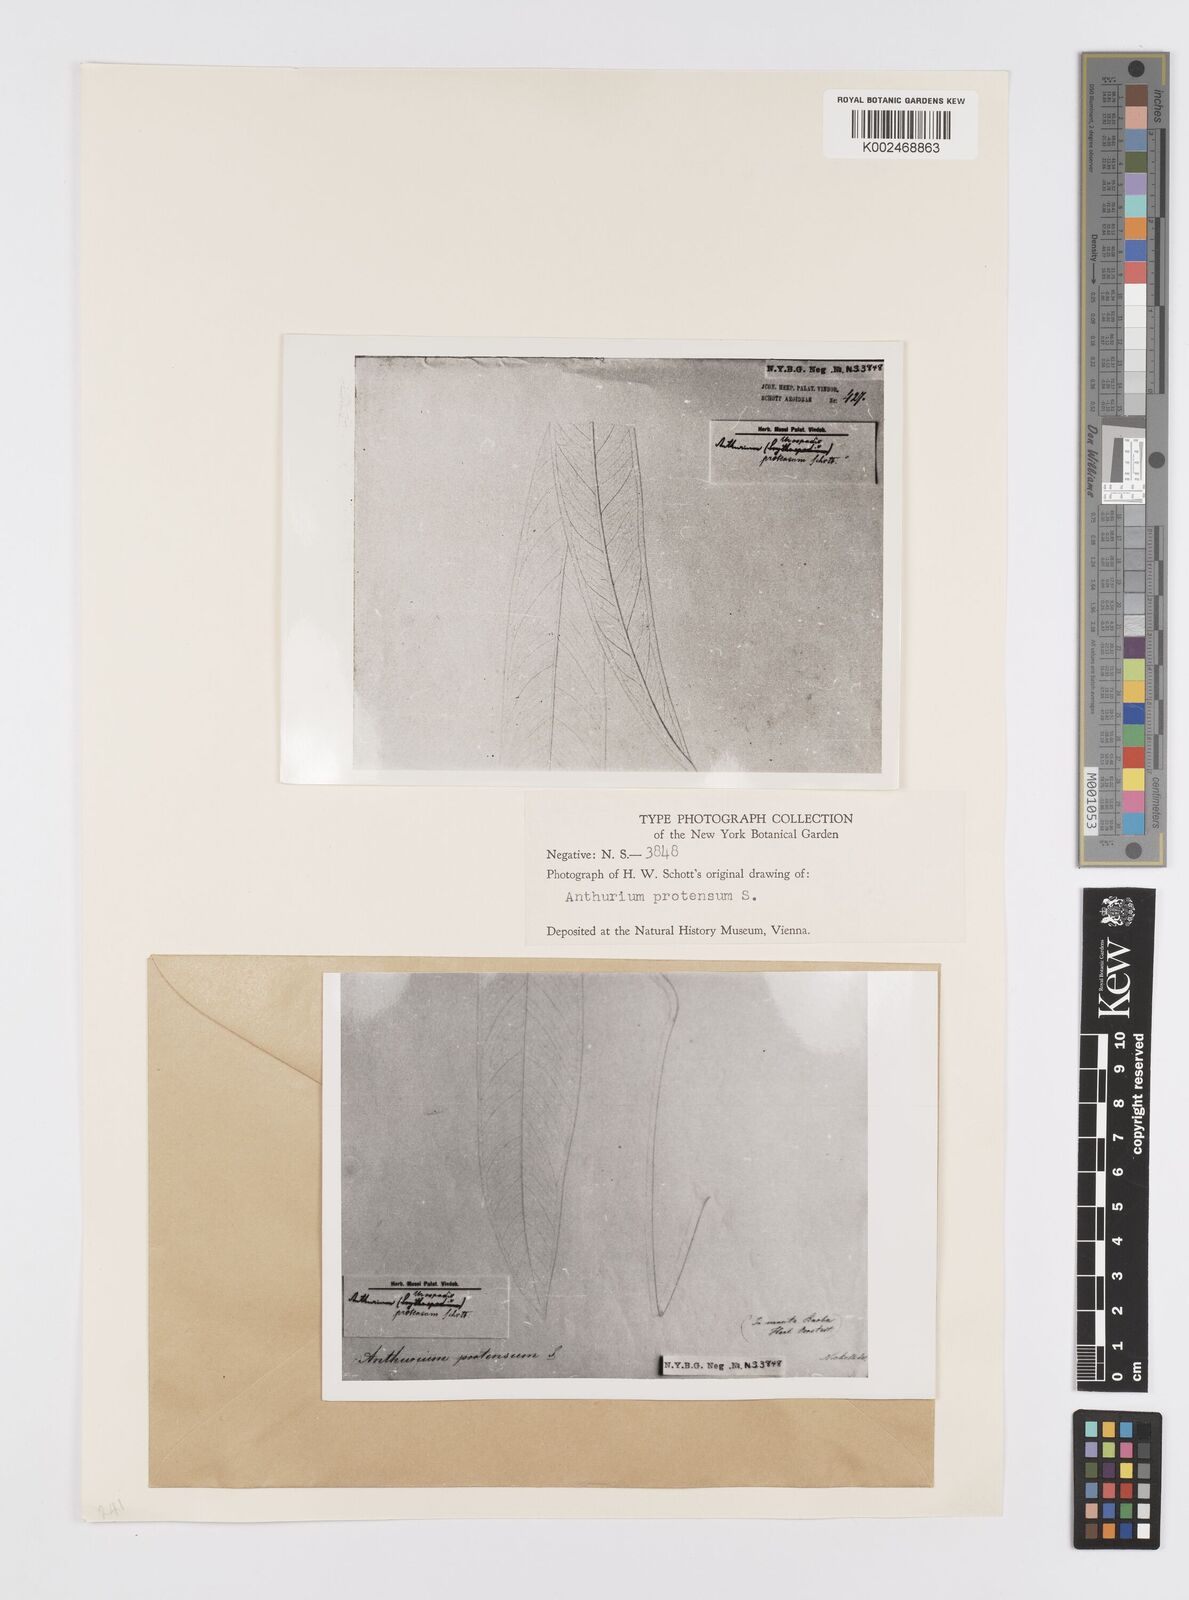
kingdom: Plantae
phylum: Tracheophyta
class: Liliopsida
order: Alismatales
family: Araceae
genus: Anthurium
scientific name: Anthurium protensum
